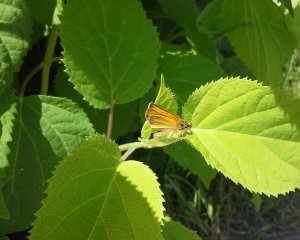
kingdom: Animalia
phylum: Arthropoda
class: Insecta
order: Lepidoptera
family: Hesperiidae
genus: Thymelicus
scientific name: Thymelicus lineola
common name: European Skipper
